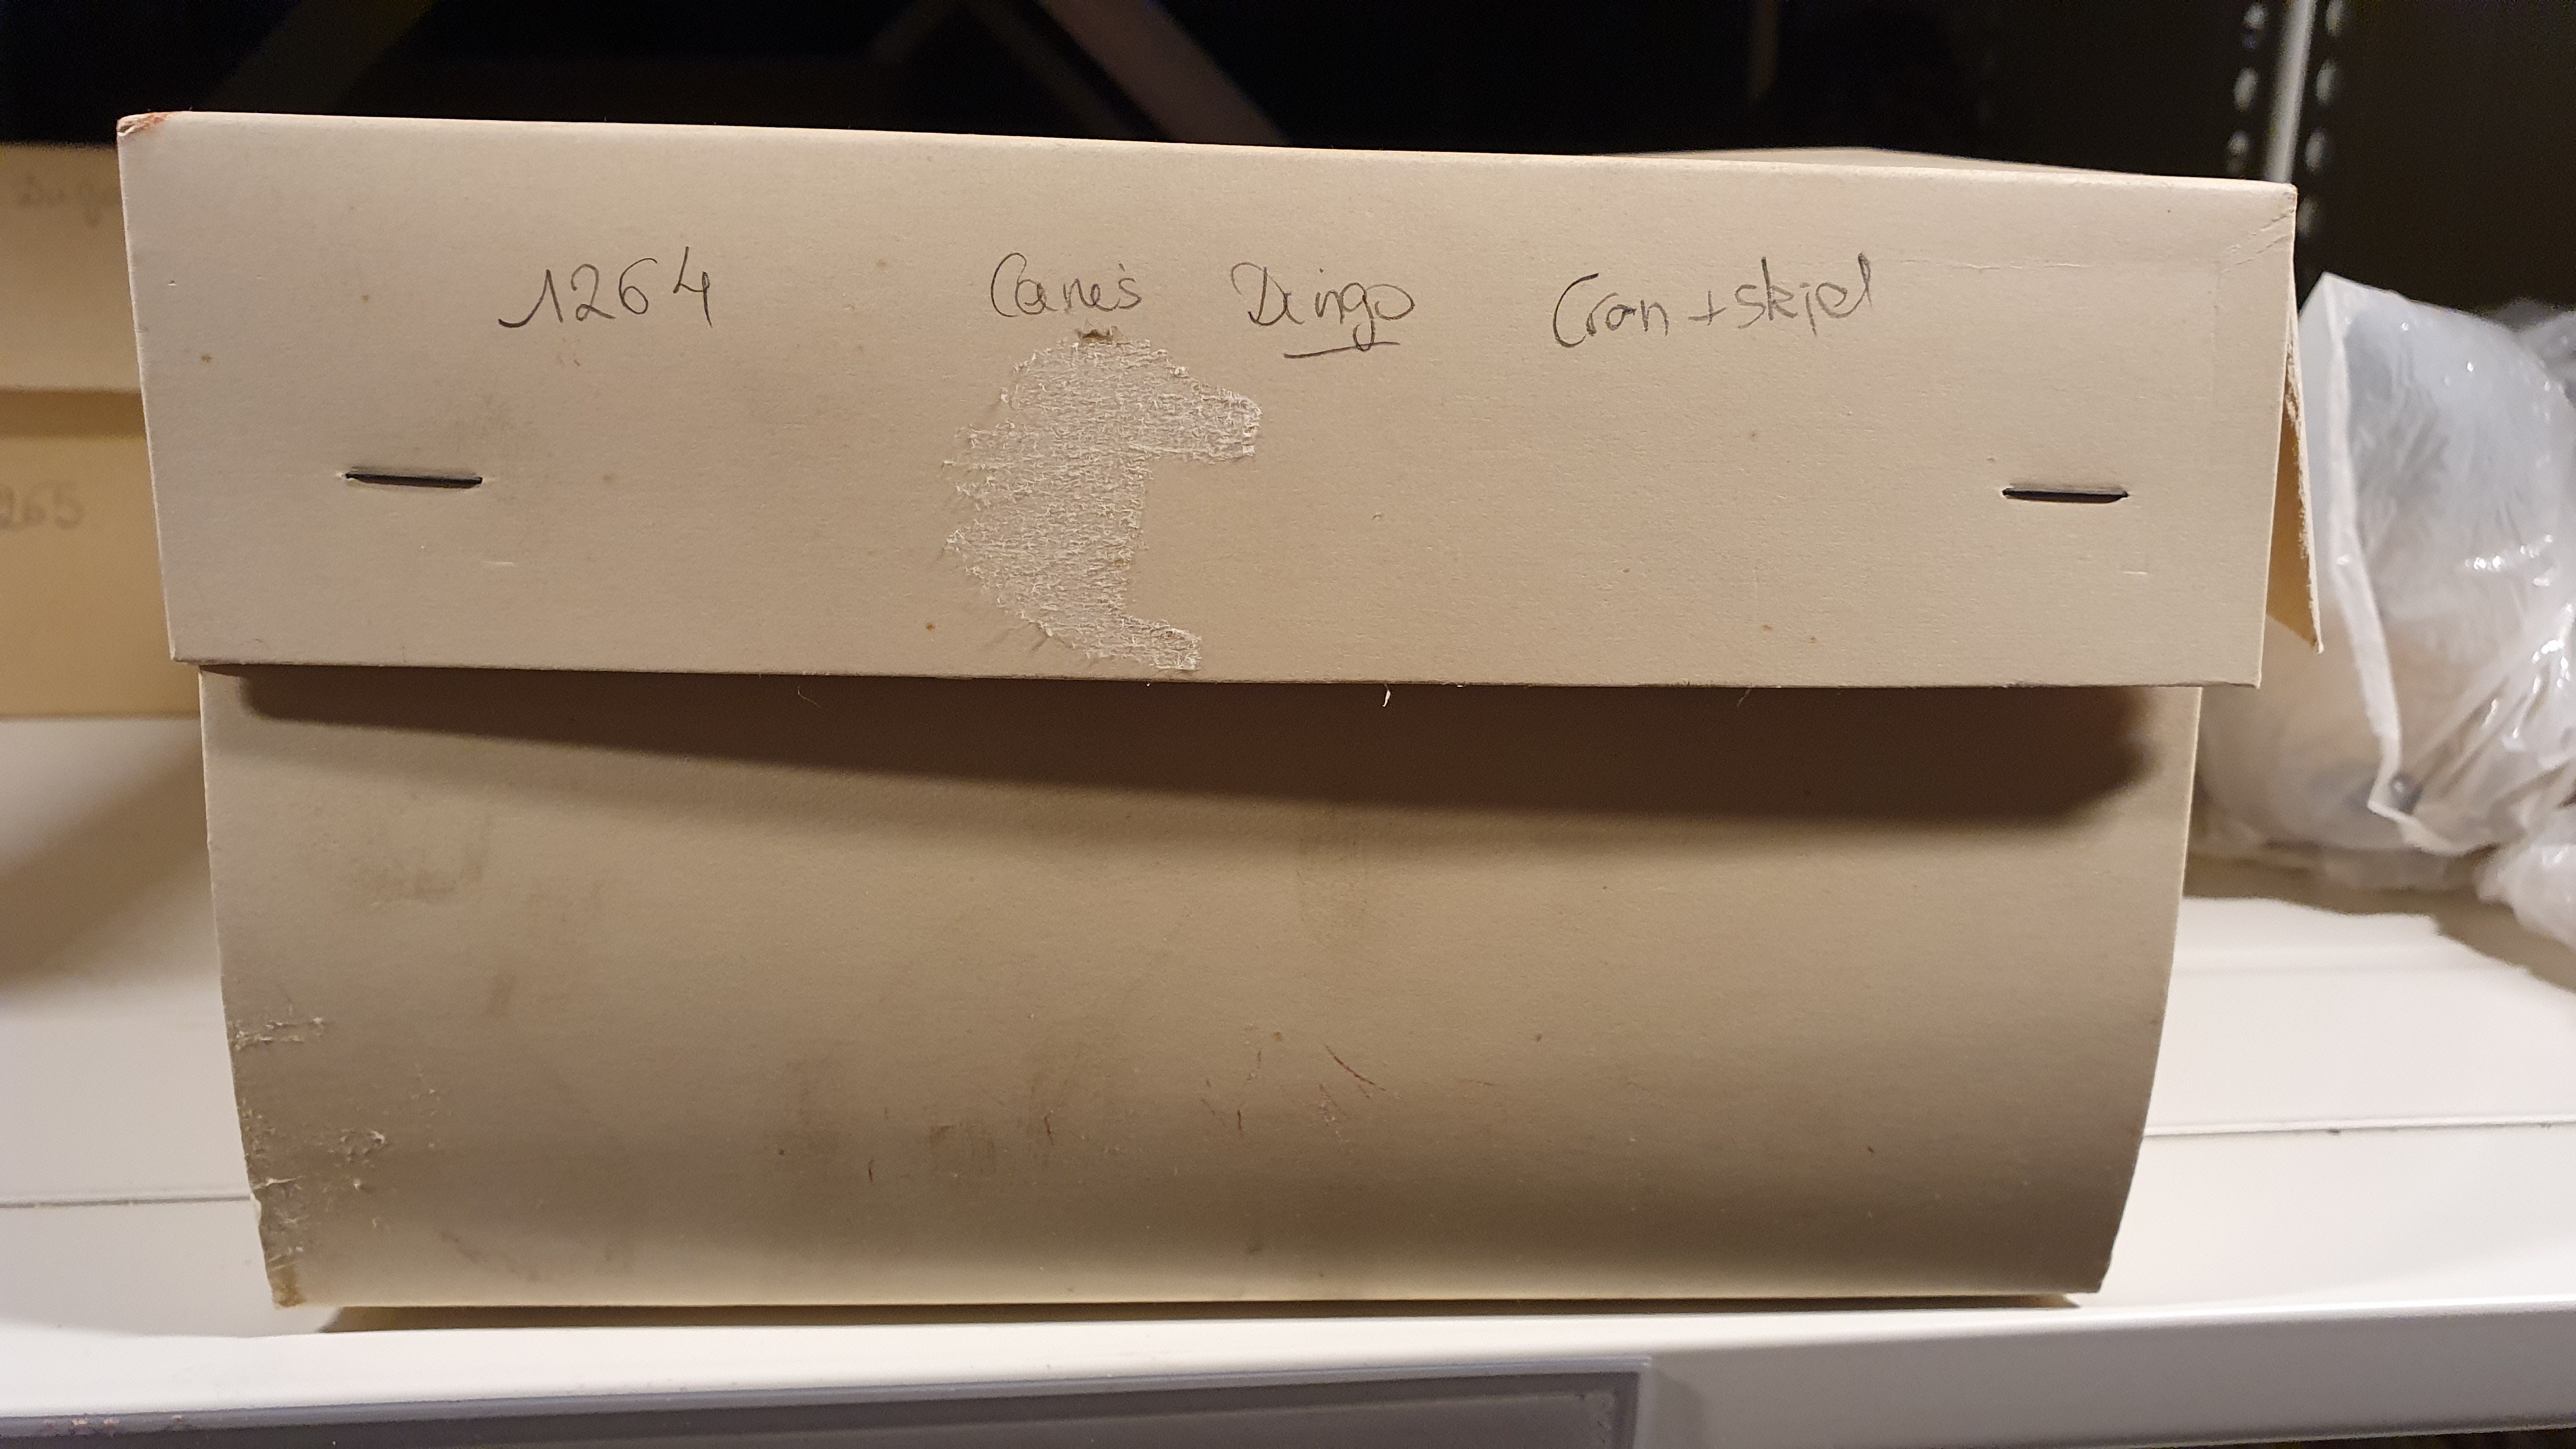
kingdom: Animalia
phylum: Chordata
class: Mammalia
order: Carnivora
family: Canidae
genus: Canis
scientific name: Canis lupus
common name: Gray wolf
